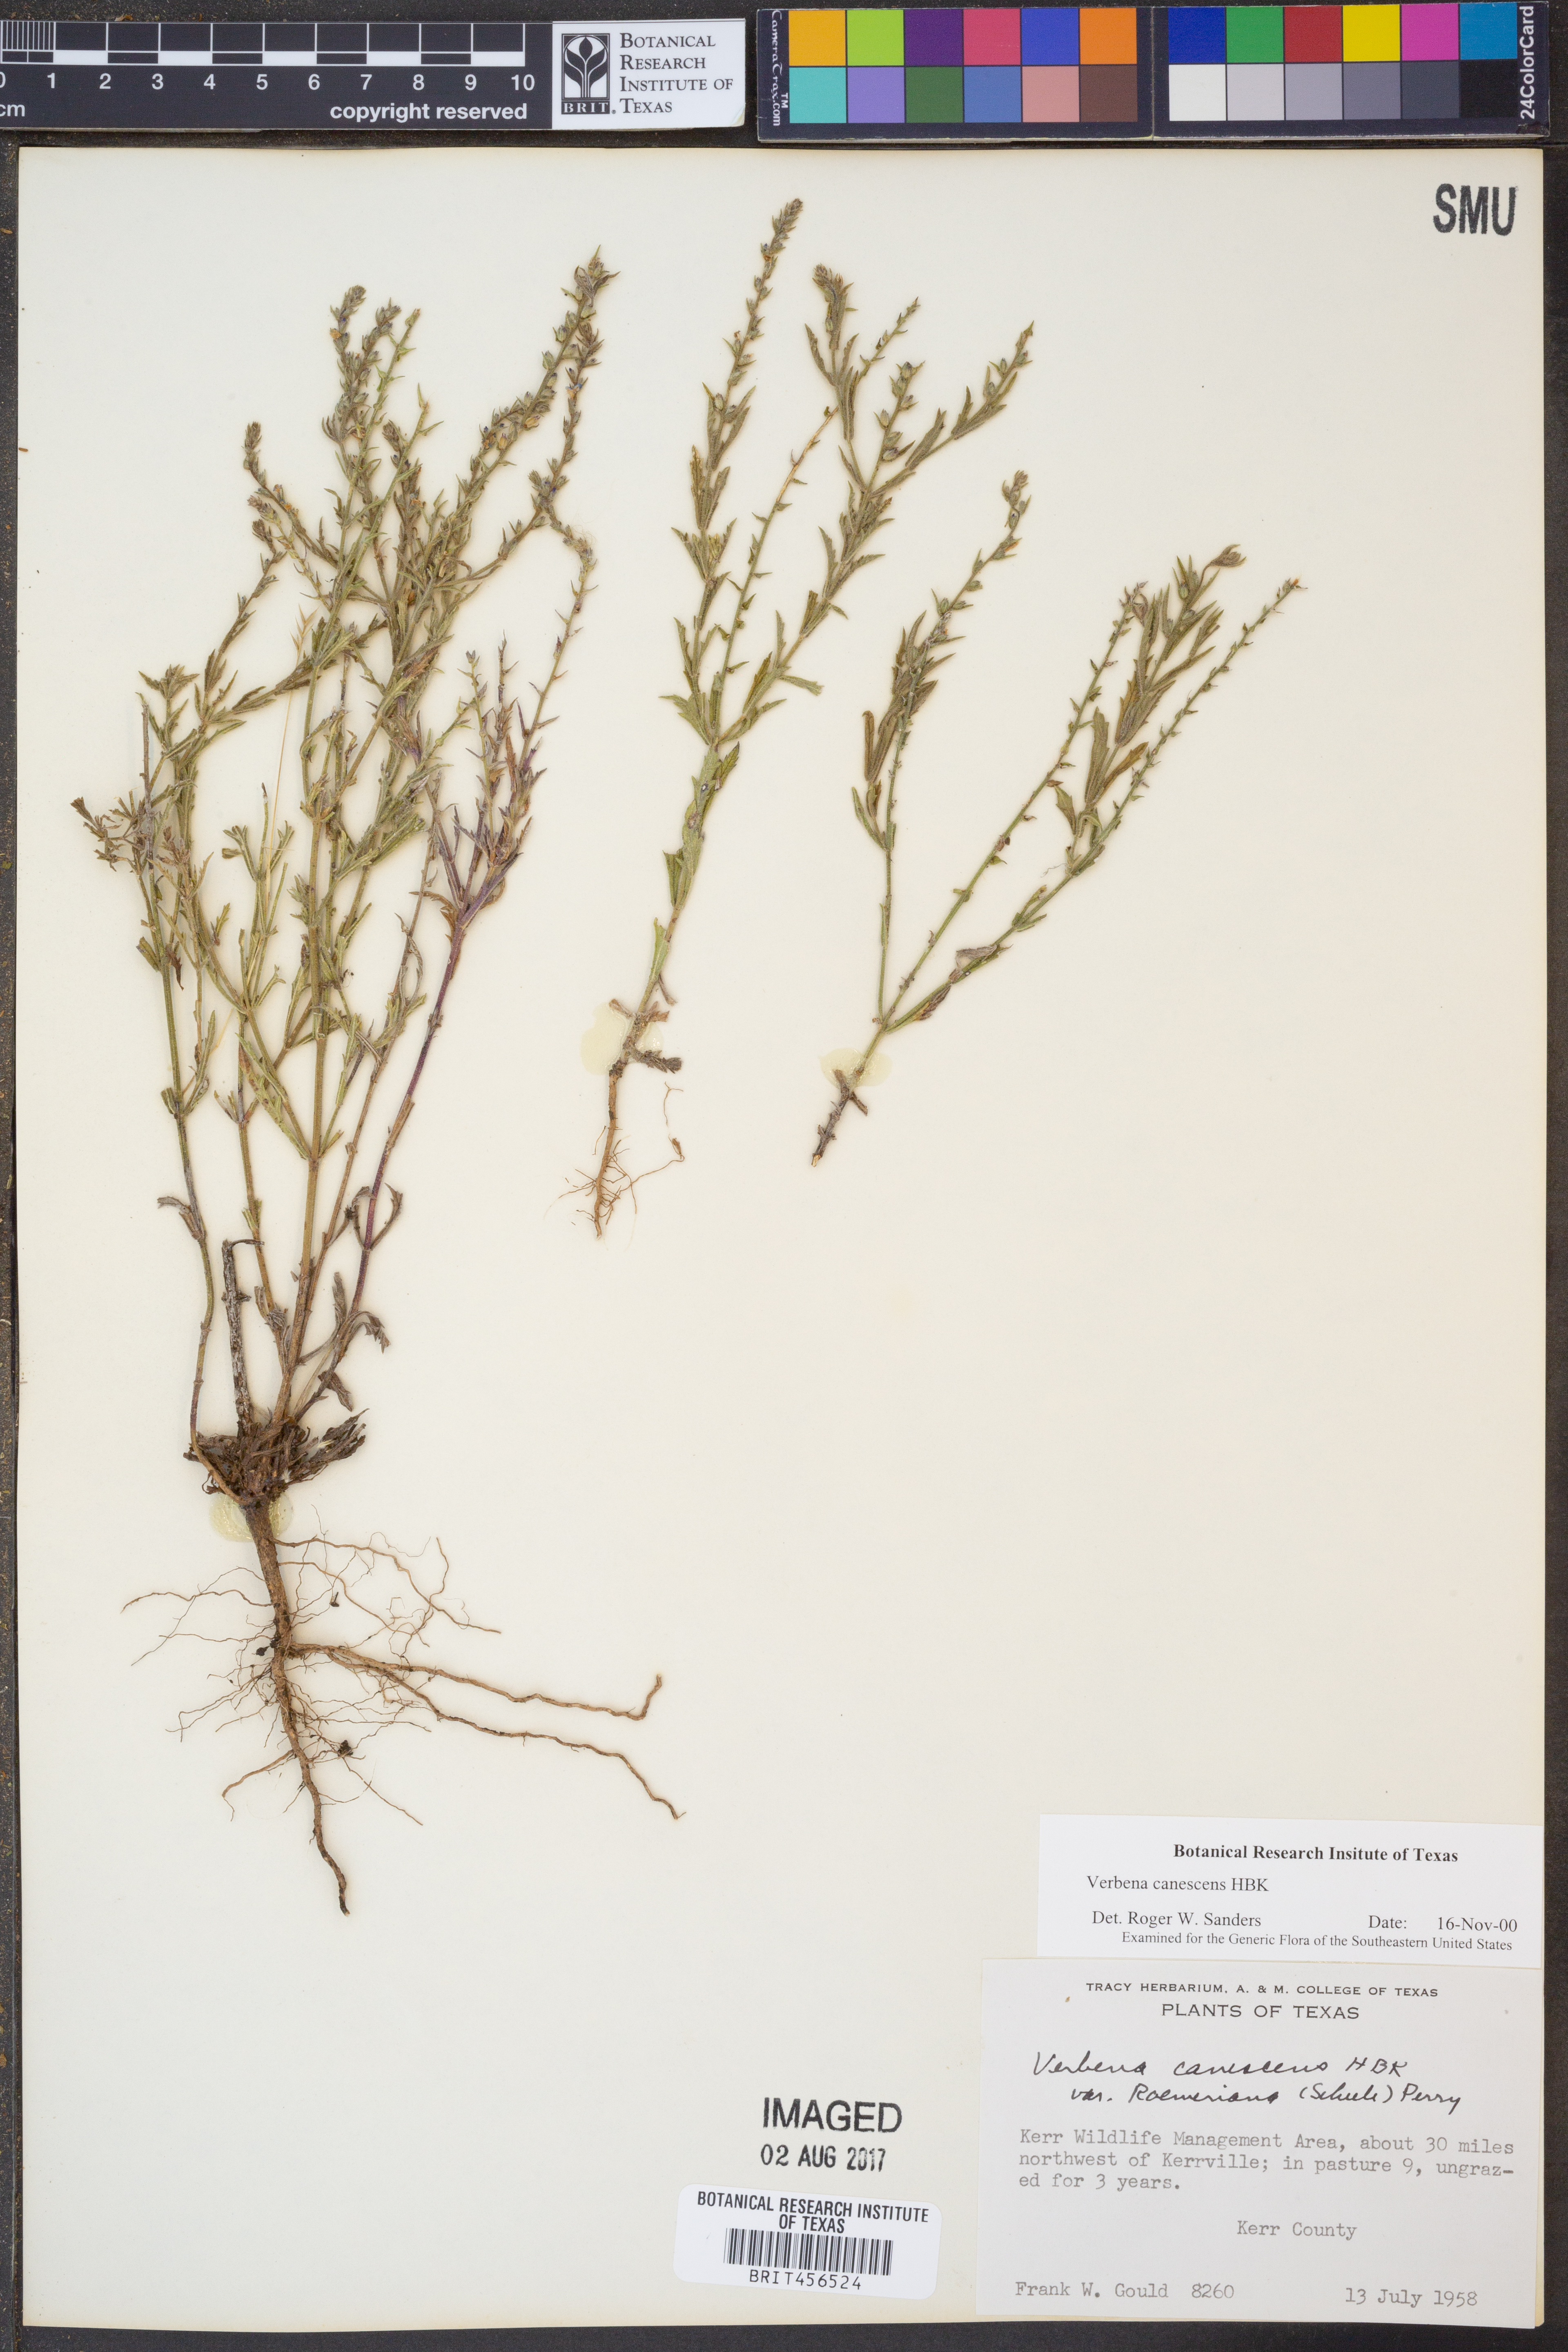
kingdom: Plantae
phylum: Tracheophyta
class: Magnoliopsida
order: Lamiales
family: Verbenaceae
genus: Verbena
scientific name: Verbena canescens
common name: Gray vervain
